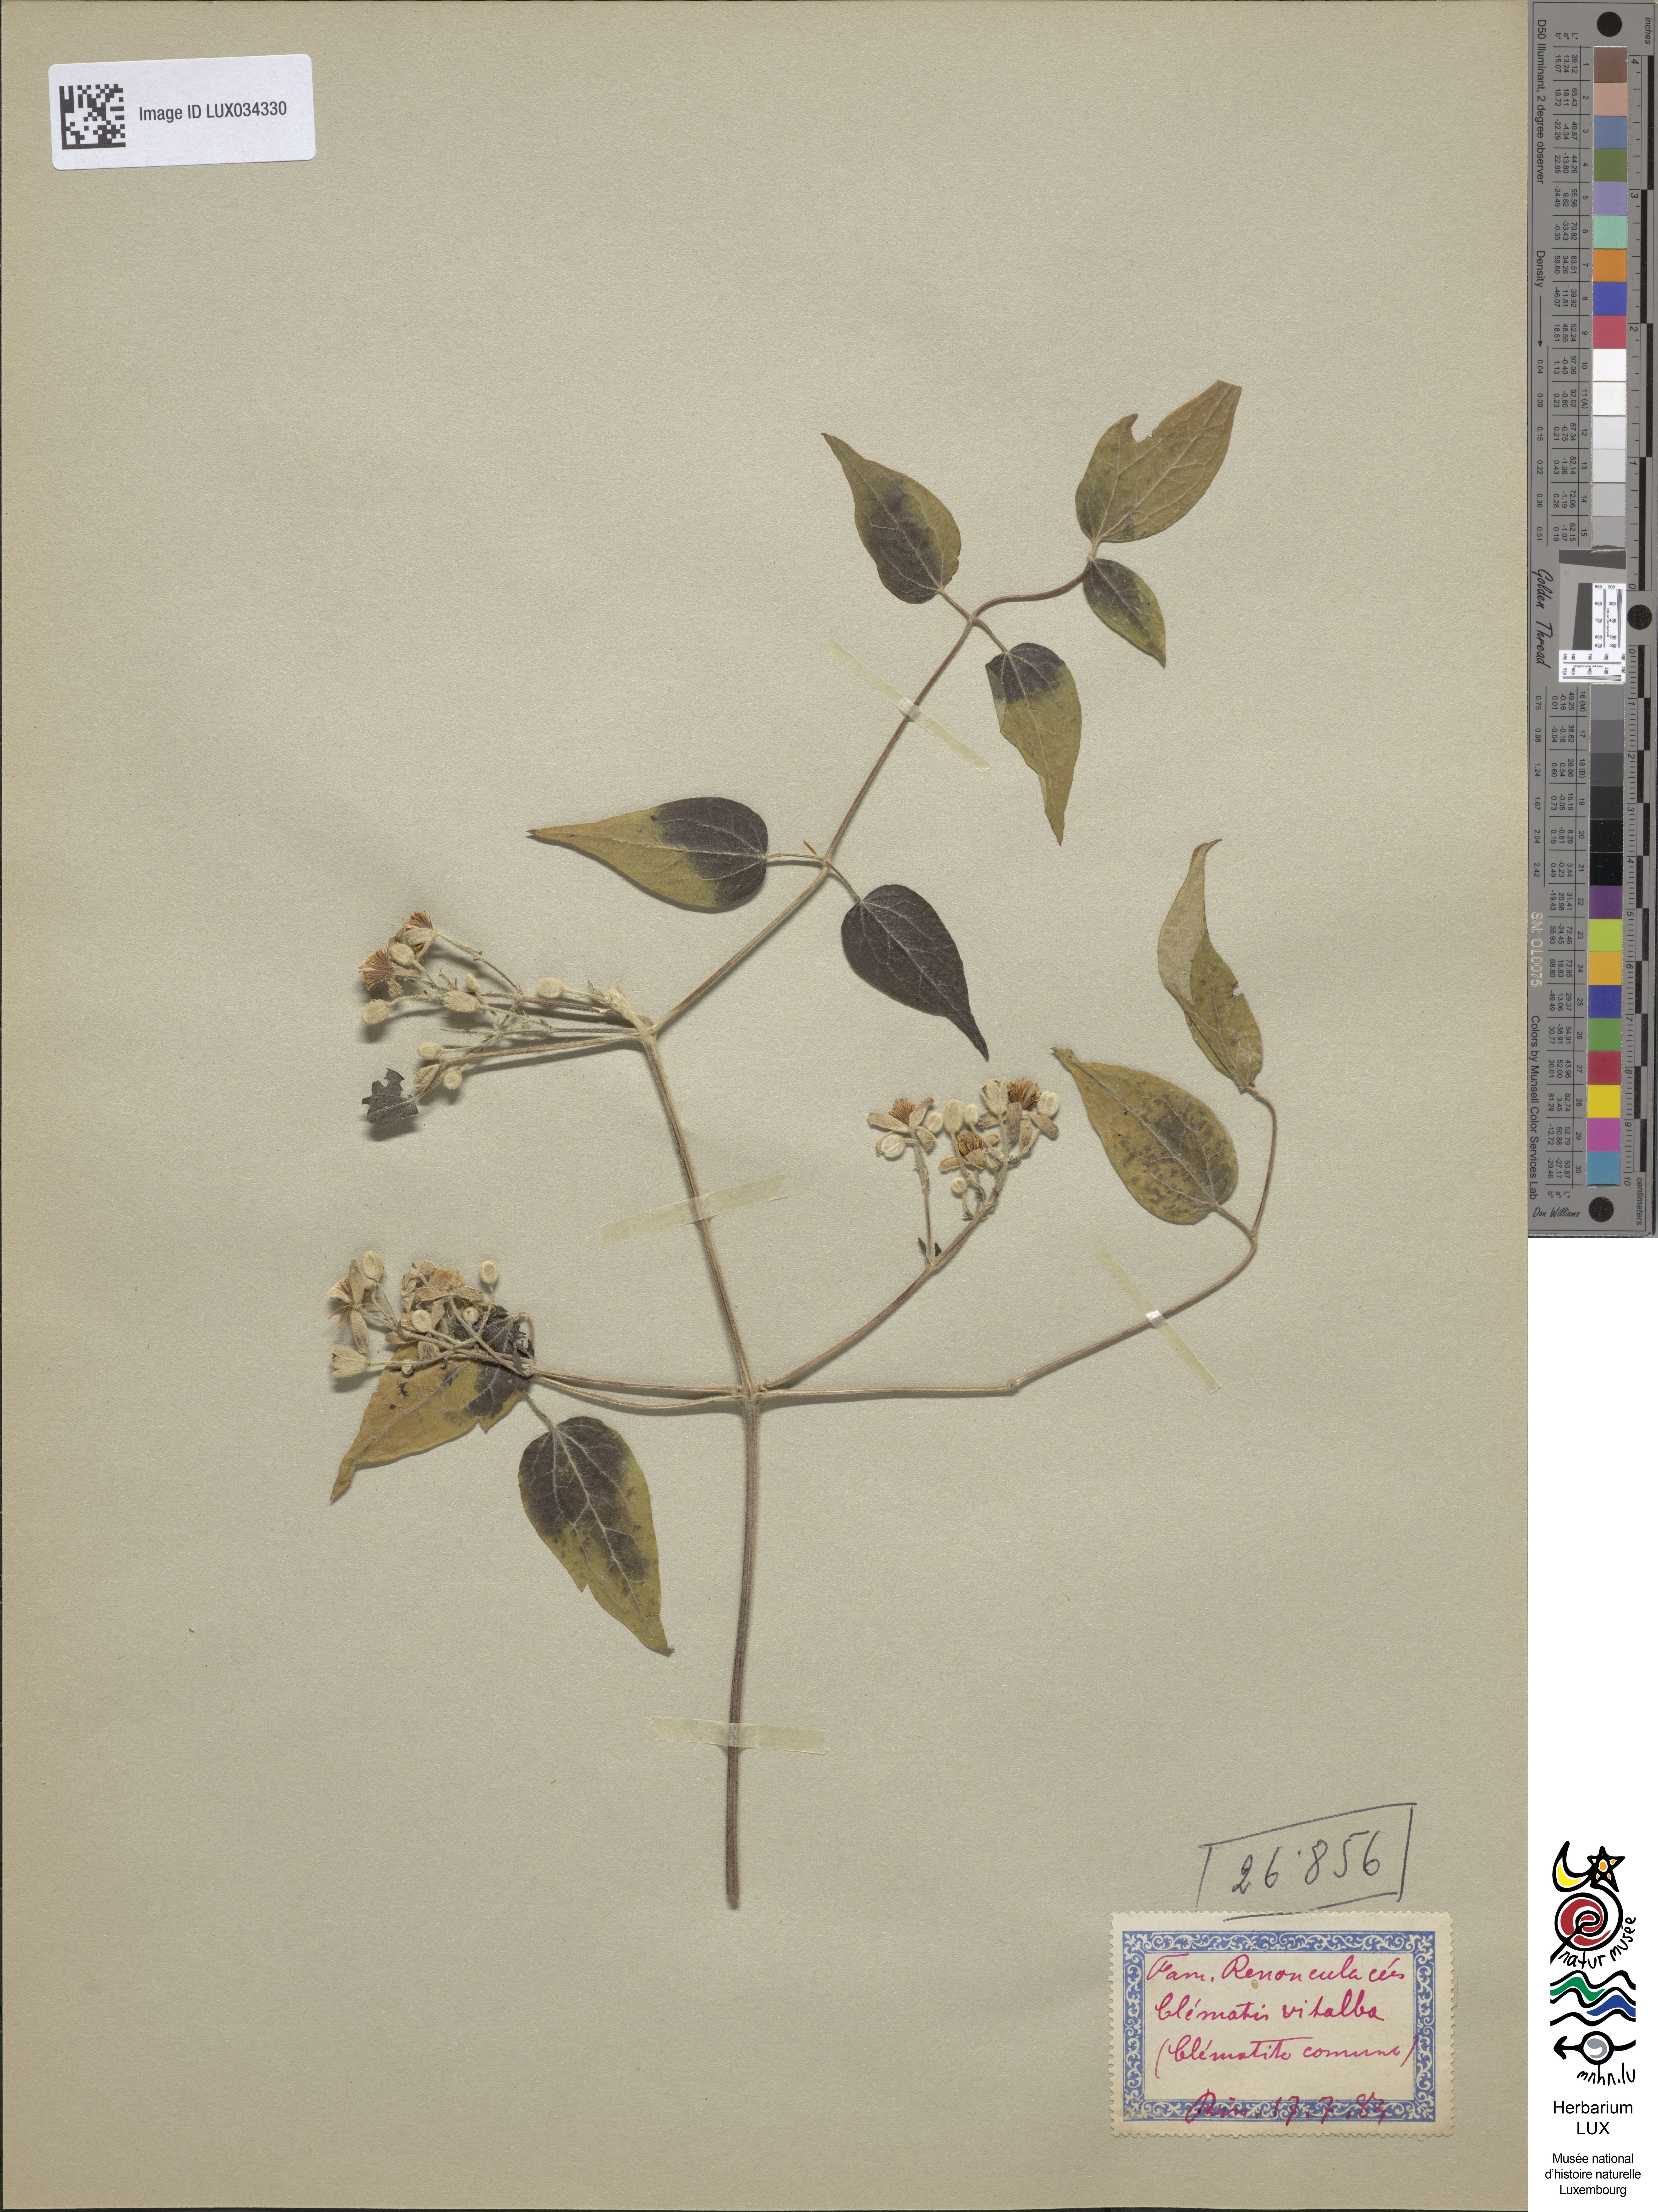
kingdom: Plantae
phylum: Tracheophyta
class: Magnoliopsida
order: Ranunculales
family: Ranunculaceae
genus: Clematis
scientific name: Clematis vitalba
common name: Evergreen clematis
